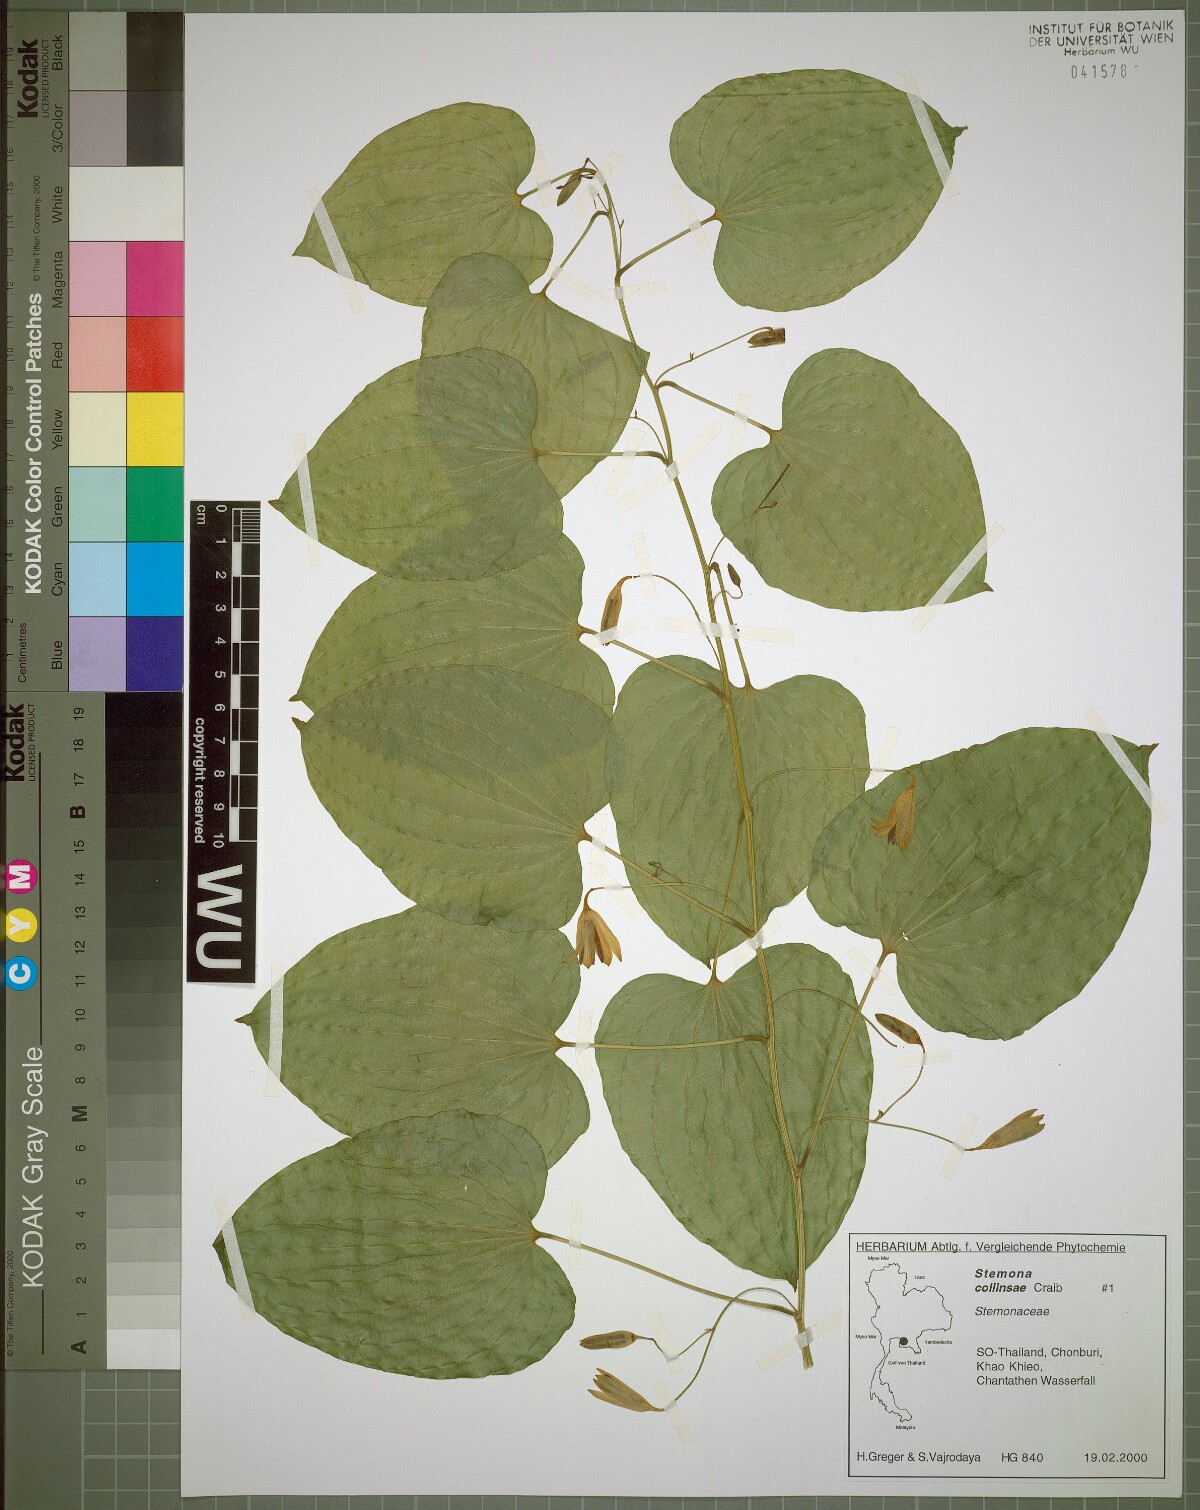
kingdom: Plantae
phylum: Tracheophyta
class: Liliopsida
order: Pandanales
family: Stemonaceae
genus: Stemona
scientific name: Stemona collinsiae
